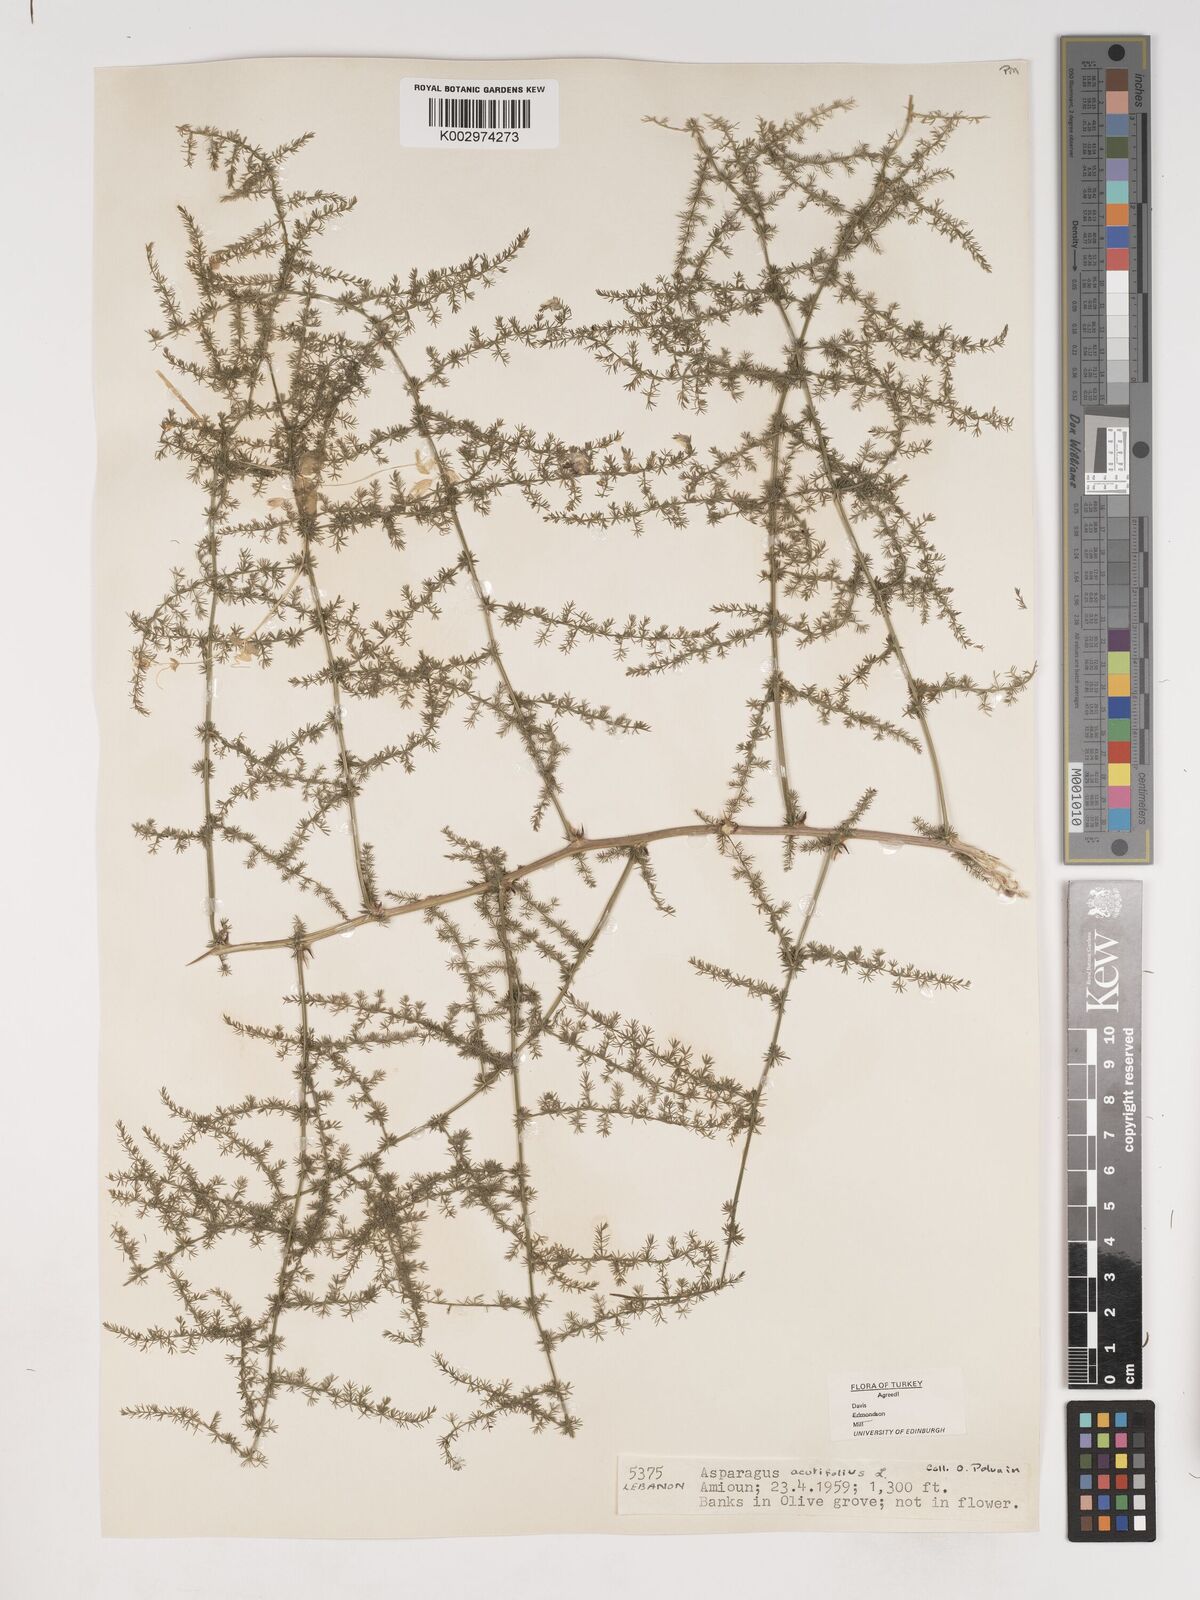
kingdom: Plantae
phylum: Tracheophyta
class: Liliopsida
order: Asparagales
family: Asparagaceae
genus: Asparagus
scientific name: Asparagus acutifolius
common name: Wild asparagus
